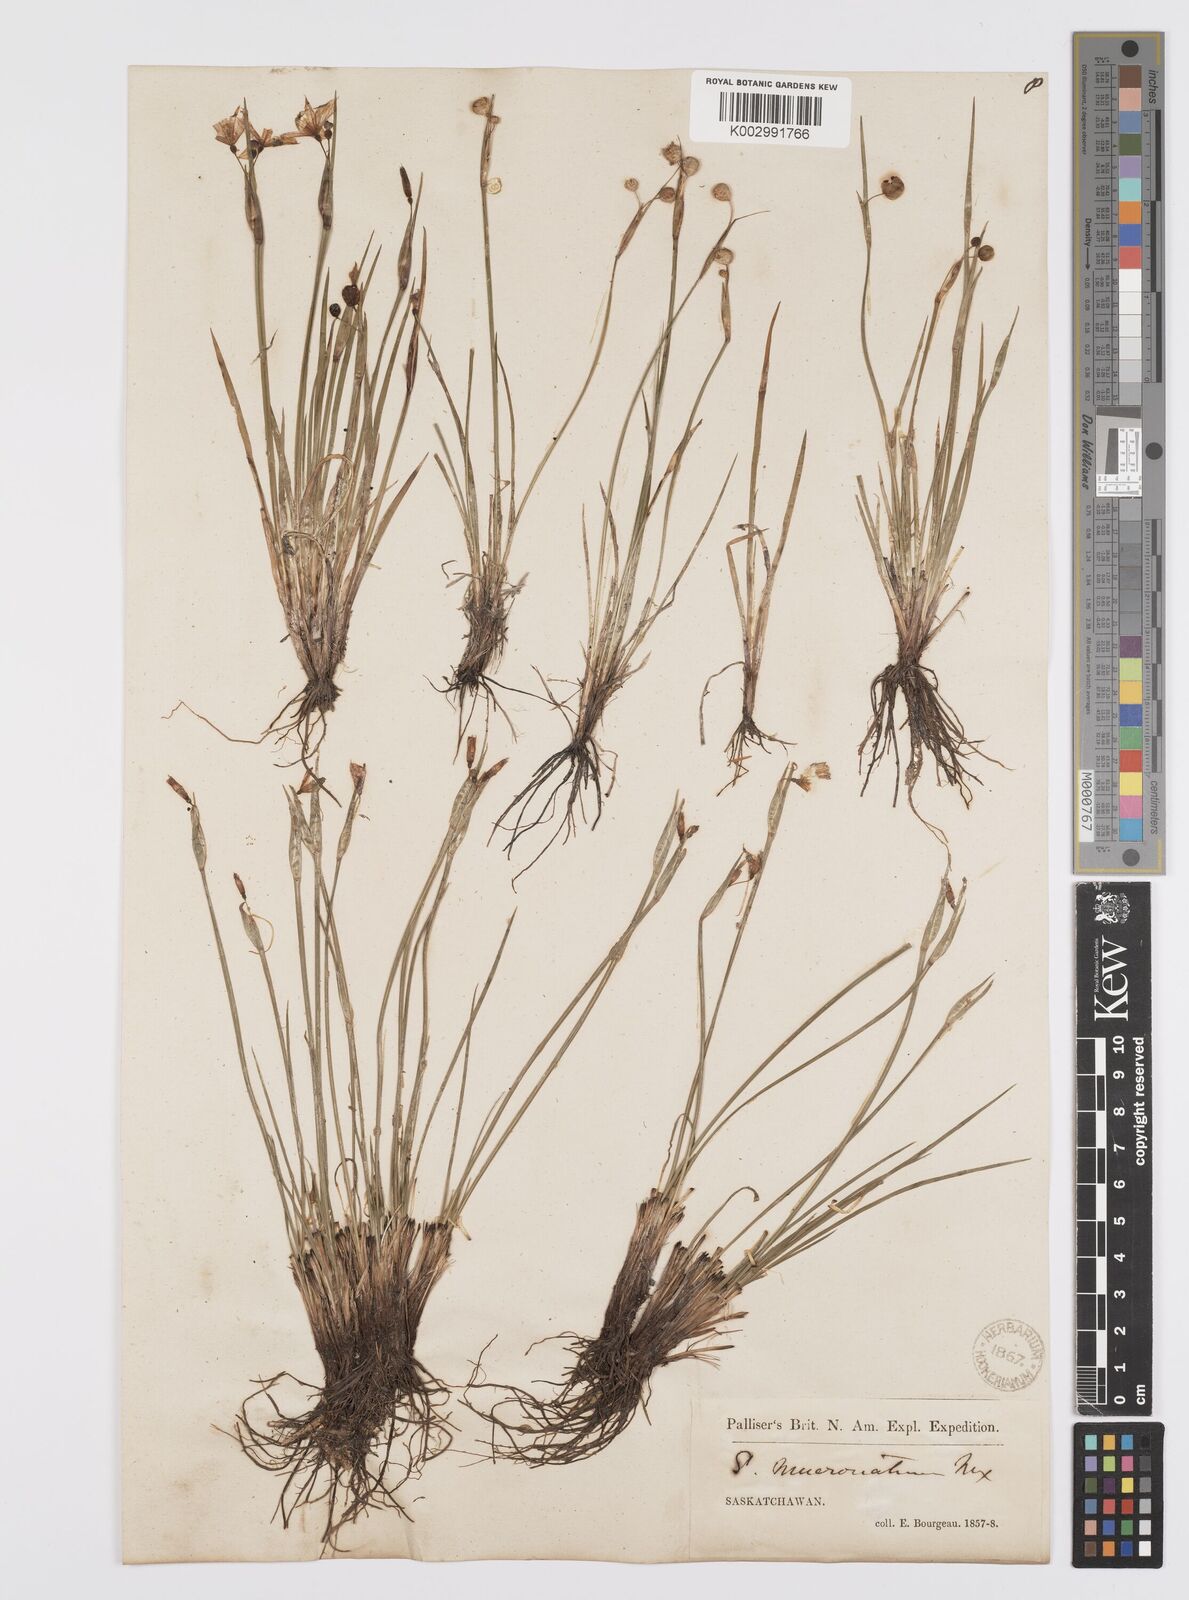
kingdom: Plantae
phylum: Tracheophyta
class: Liliopsida
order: Asparagales
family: Iridaceae
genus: Sisyrinchium
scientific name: Sisyrinchium bermudiana
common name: Blue-eyed-grass
